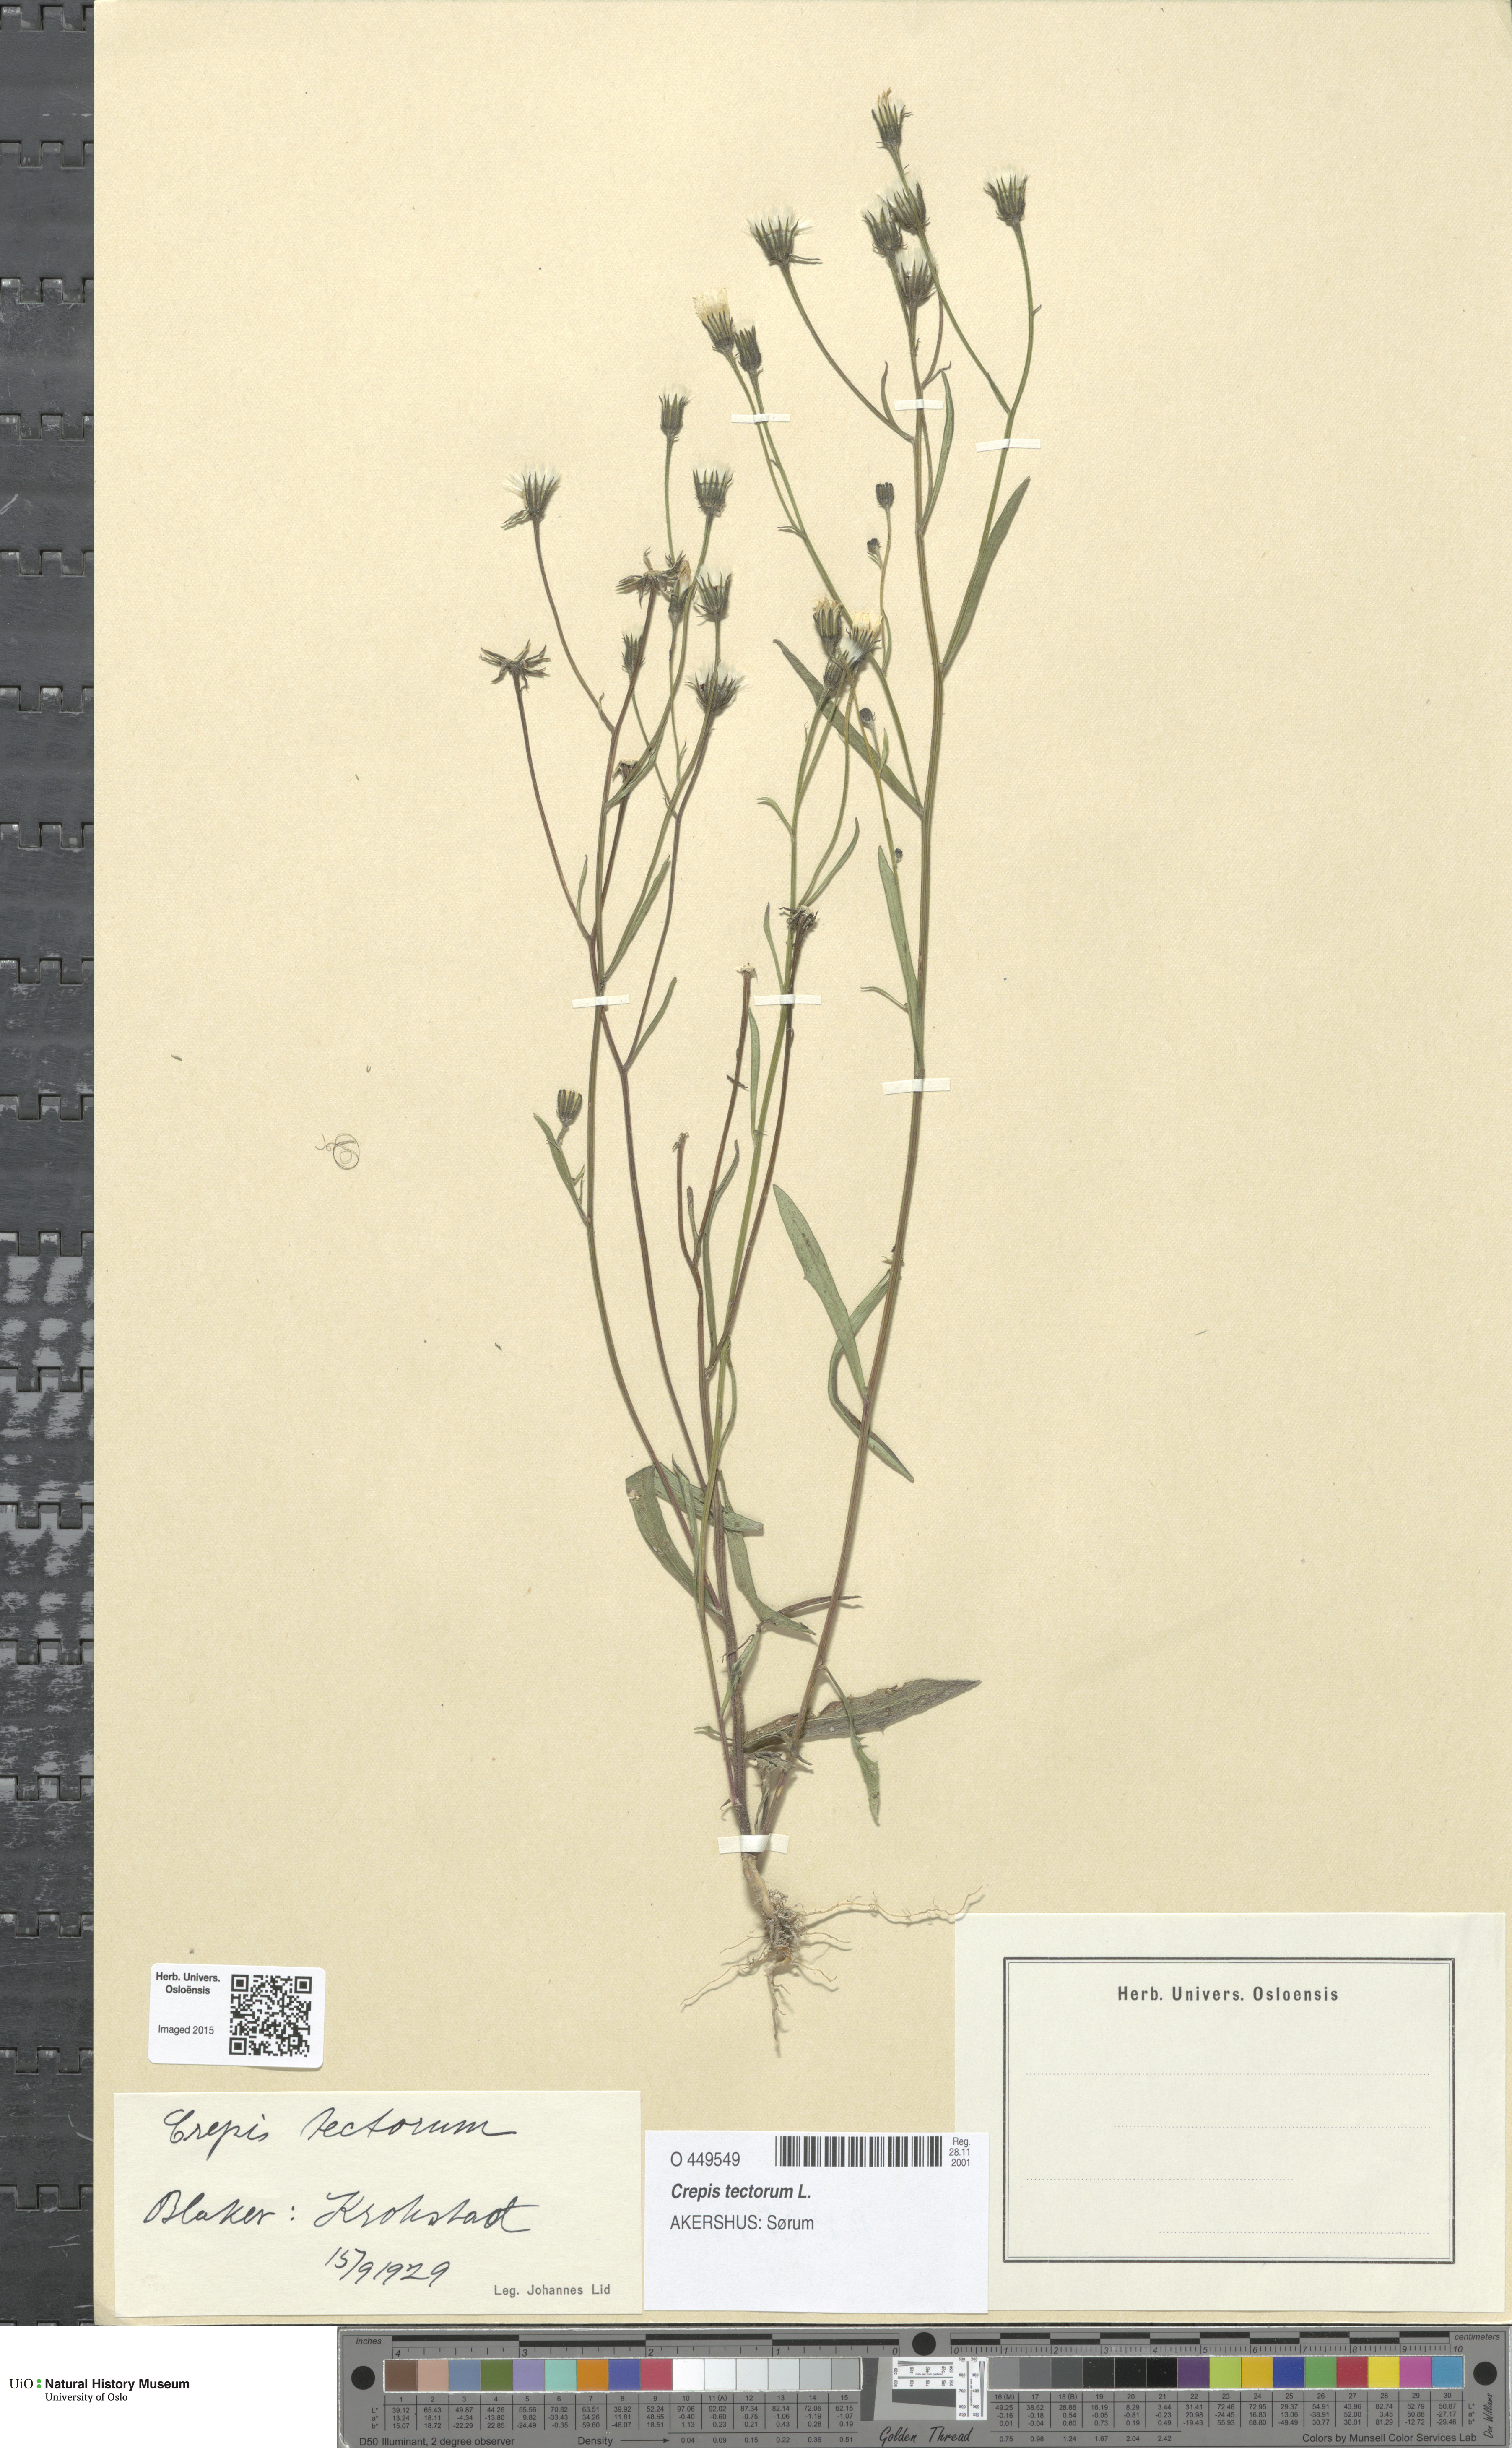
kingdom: Plantae
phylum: Tracheophyta
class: Magnoliopsida
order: Asterales
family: Asteraceae
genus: Crepis
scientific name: Crepis tectorum
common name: Narrow-leaved hawk's-beard
